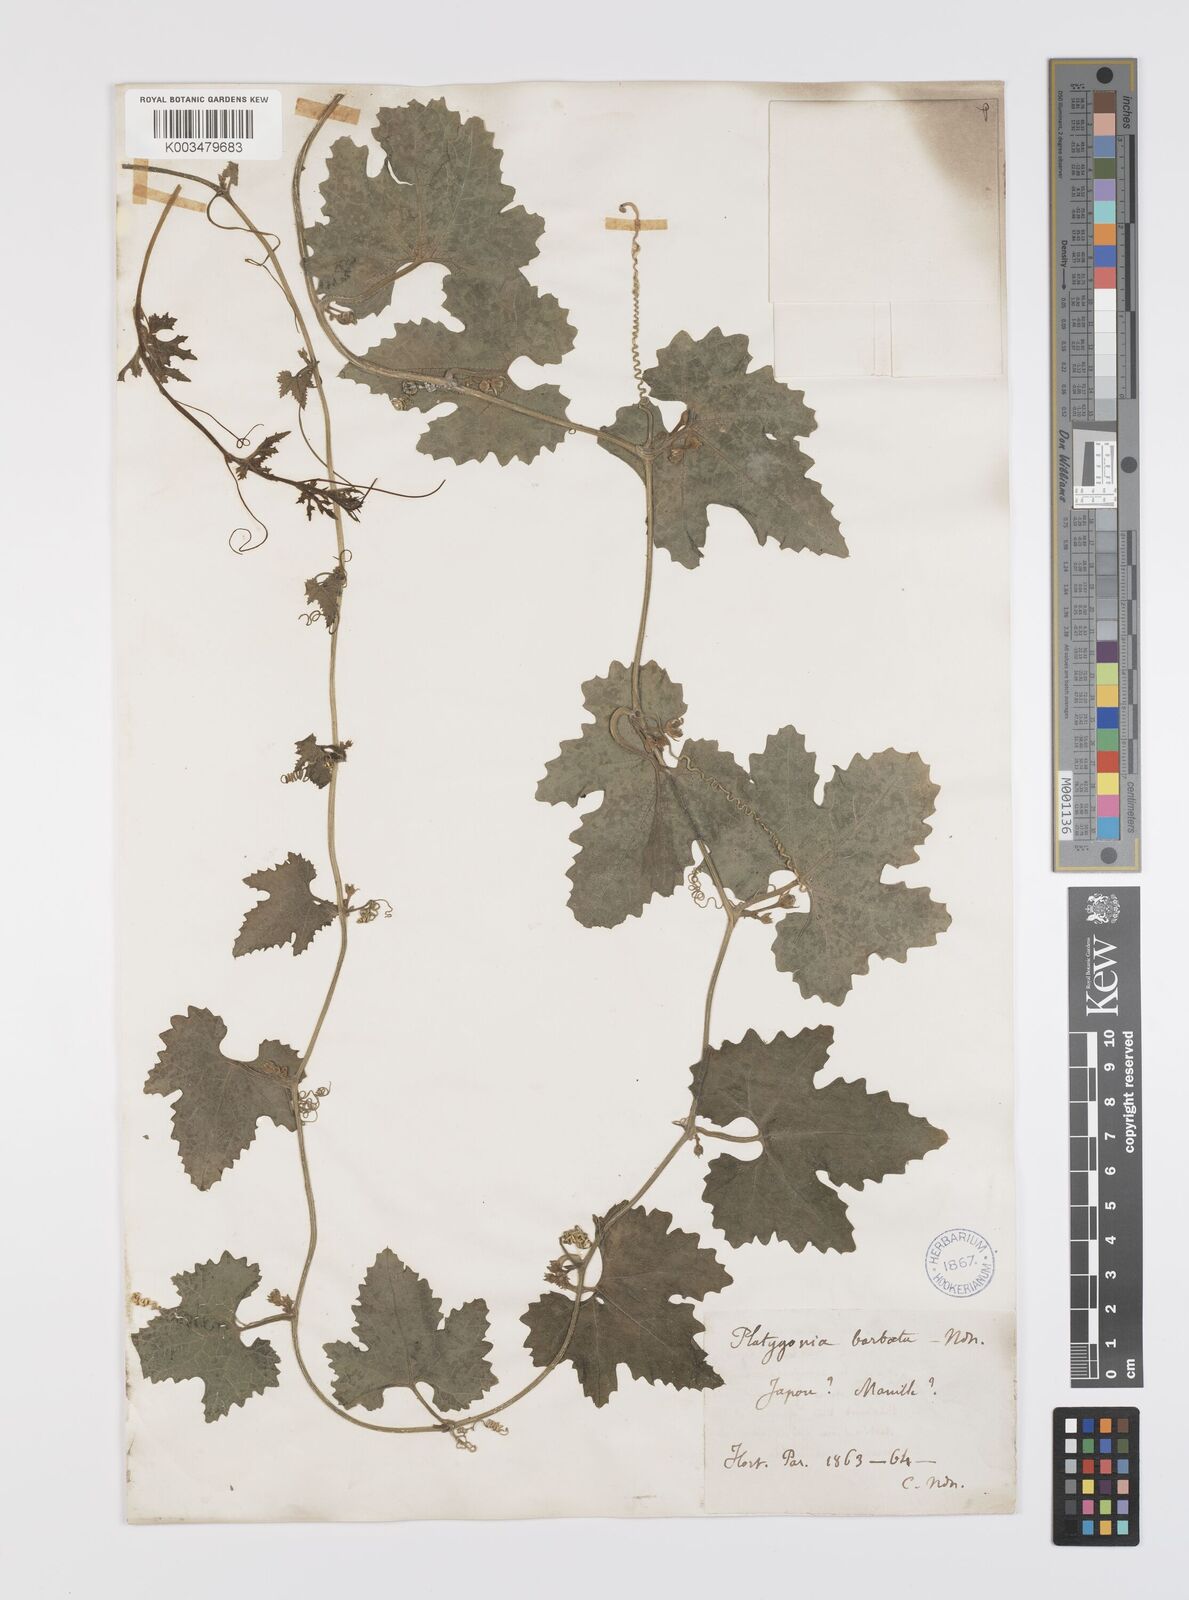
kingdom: Plantae
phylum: Tracheophyta
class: Magnoliopsida
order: Cucurbitales
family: Cucurbitaceae
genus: Trichosanthes
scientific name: Trichosanthes ovigera
